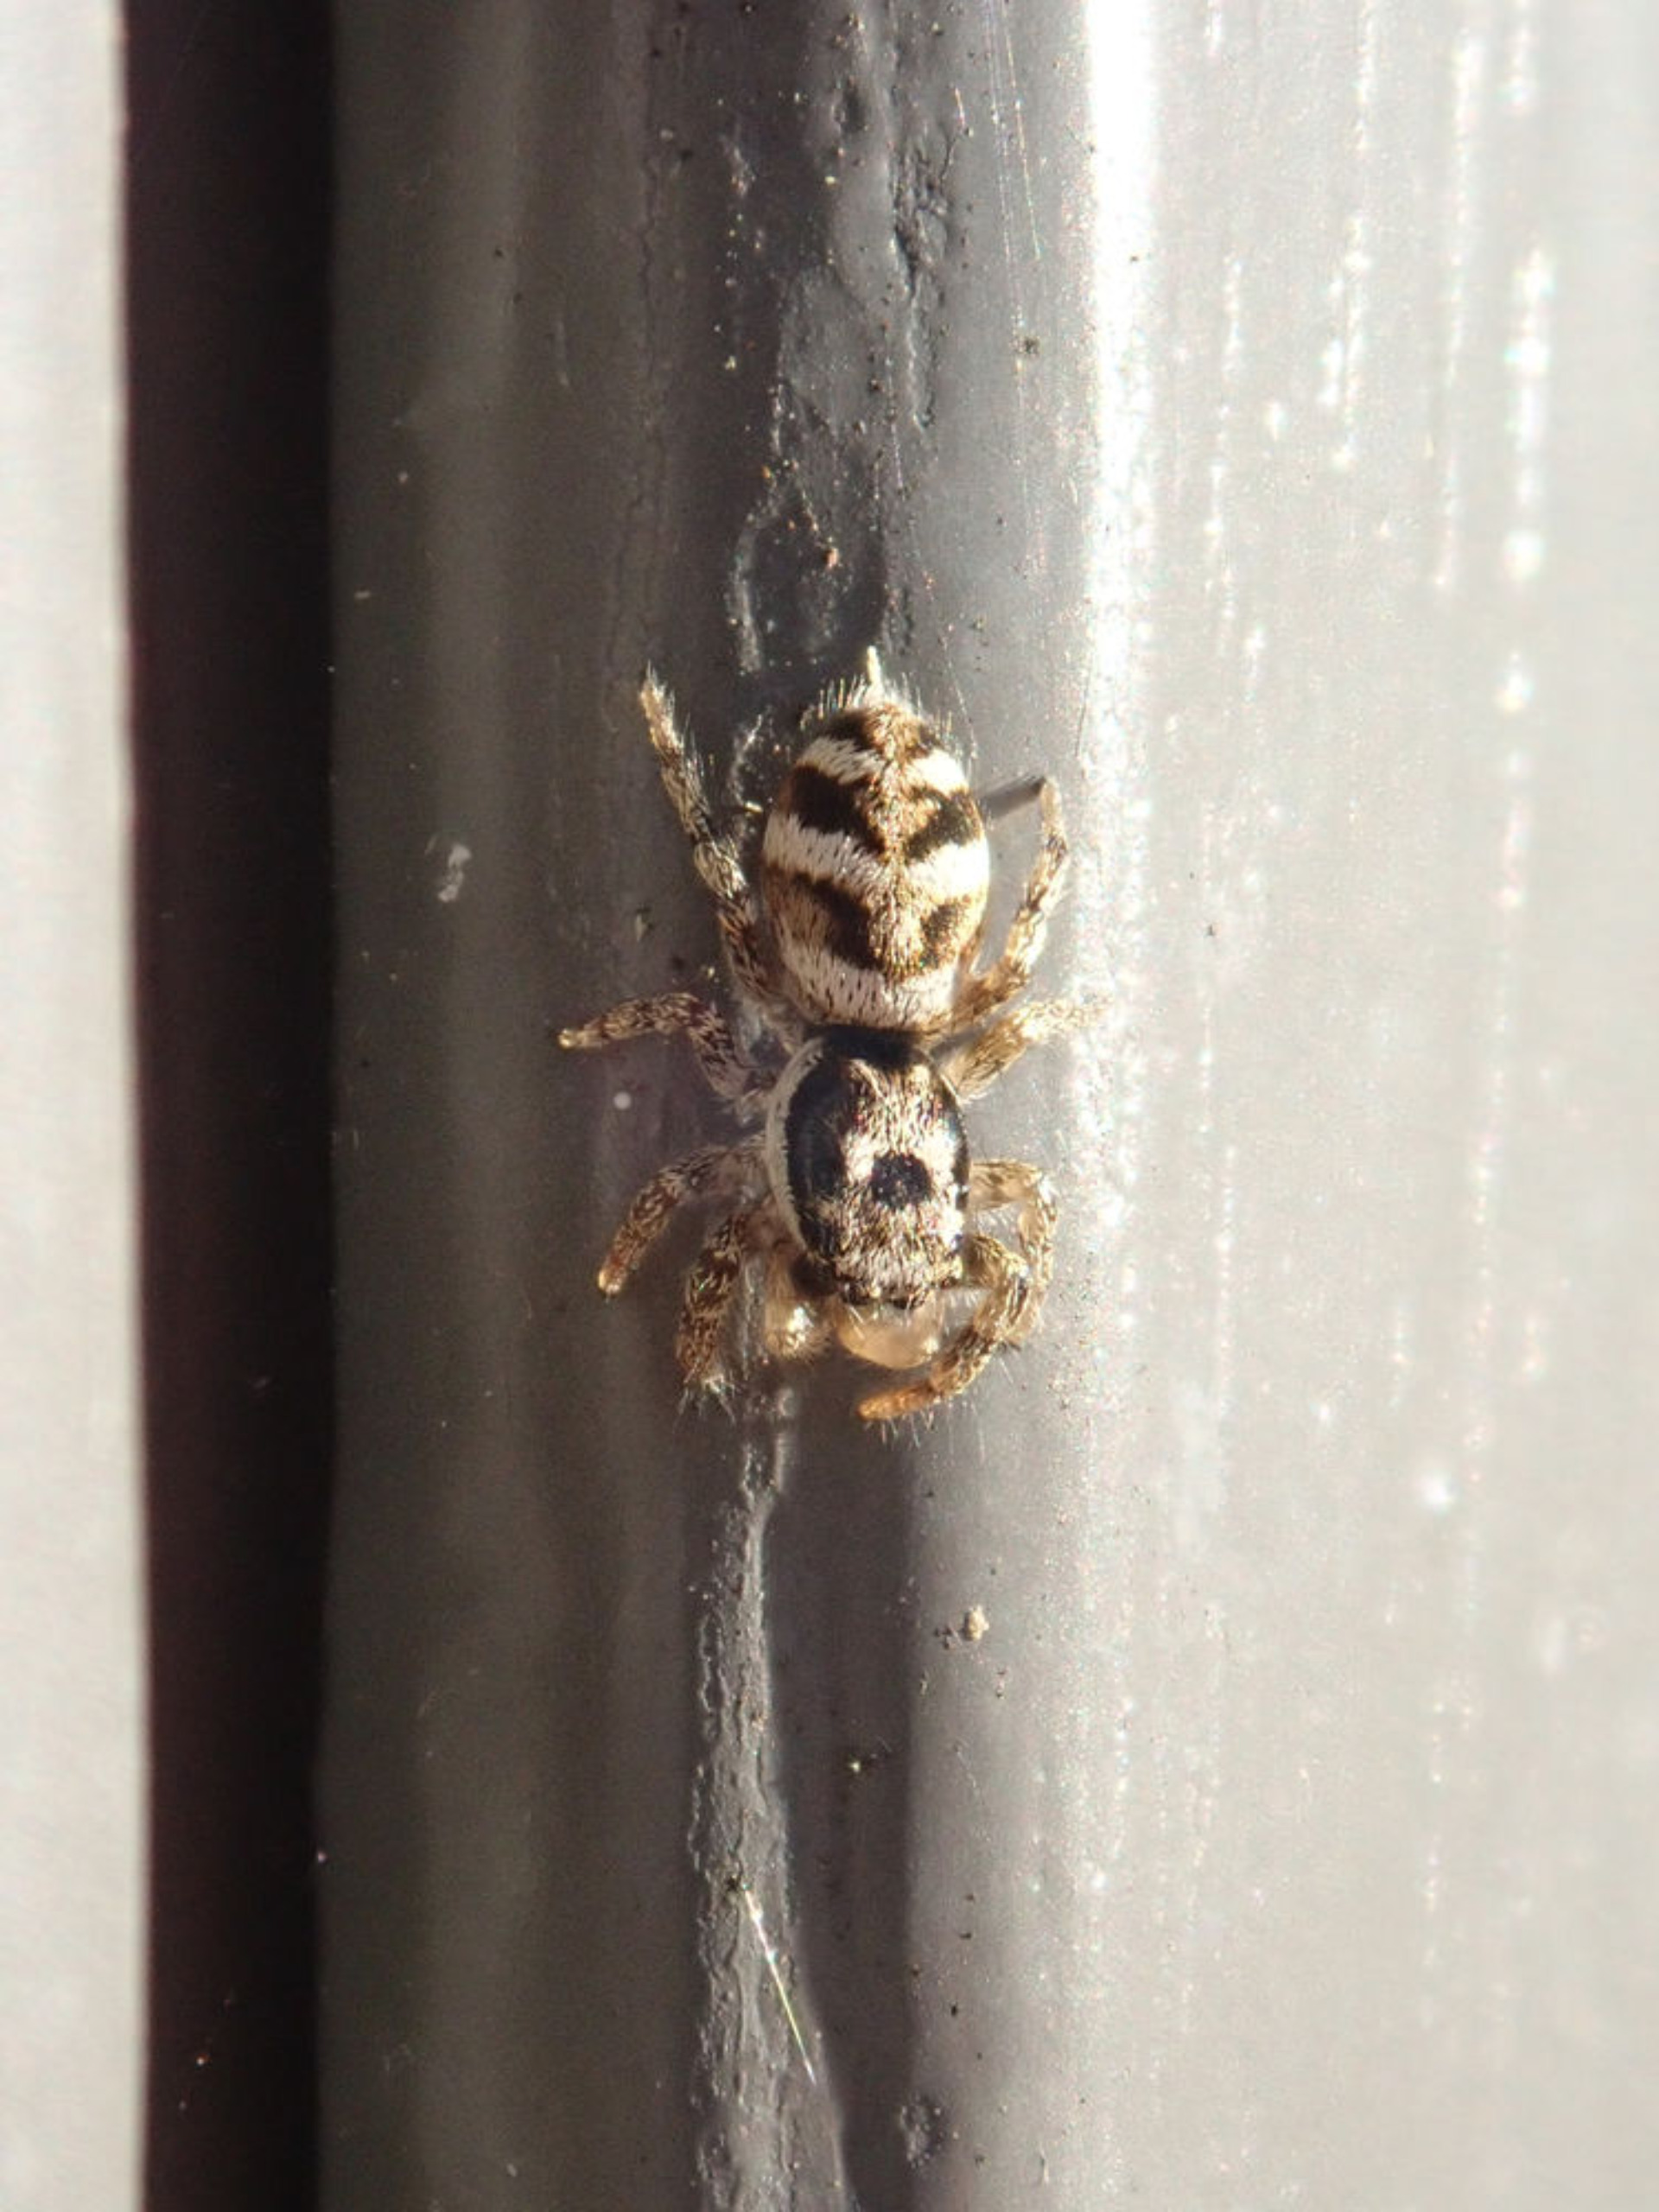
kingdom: Animalia
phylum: Arthropoda
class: Arachnida
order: Araneae
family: Salticidae
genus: Salticus
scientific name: Salticus scenicus
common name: Almindelig zebraedderkop
